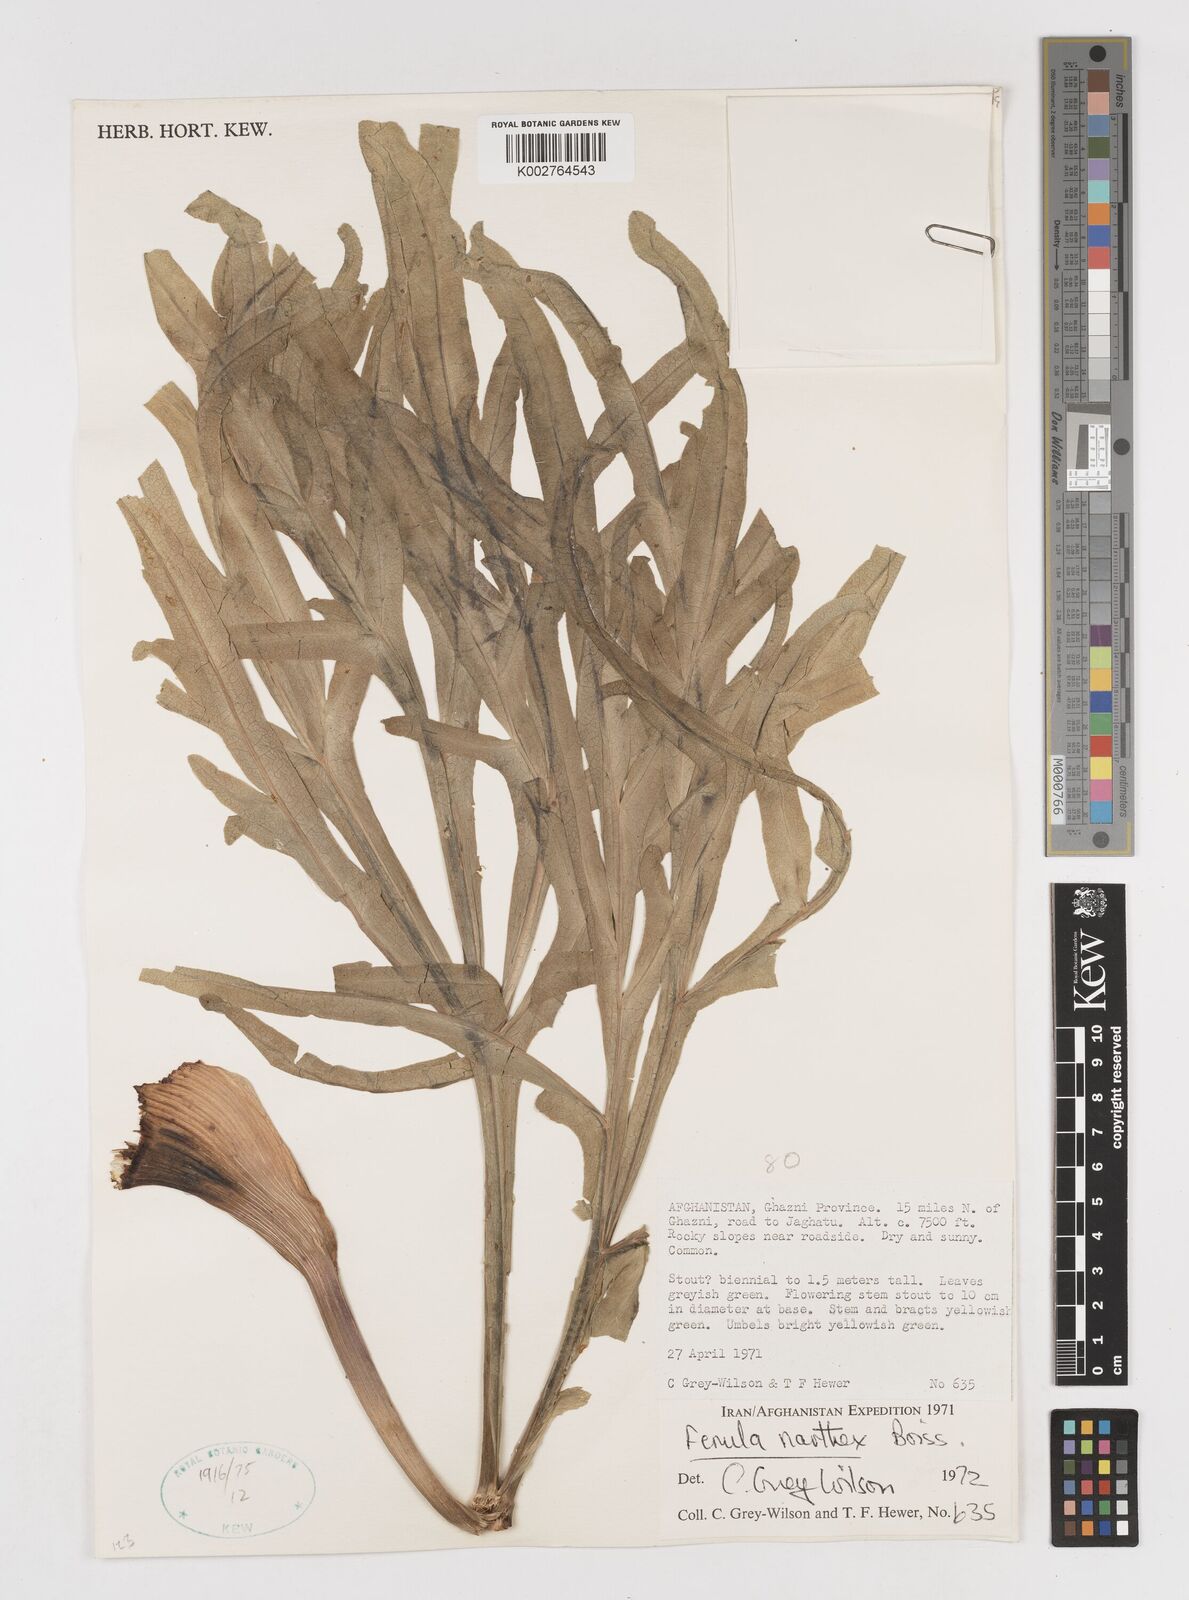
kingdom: Plantae
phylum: Tracheophyta
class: Magnoliopsida
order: Apiales
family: Apiaceae
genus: Ferula
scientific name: Ferula narthex
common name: Hing asafetida
